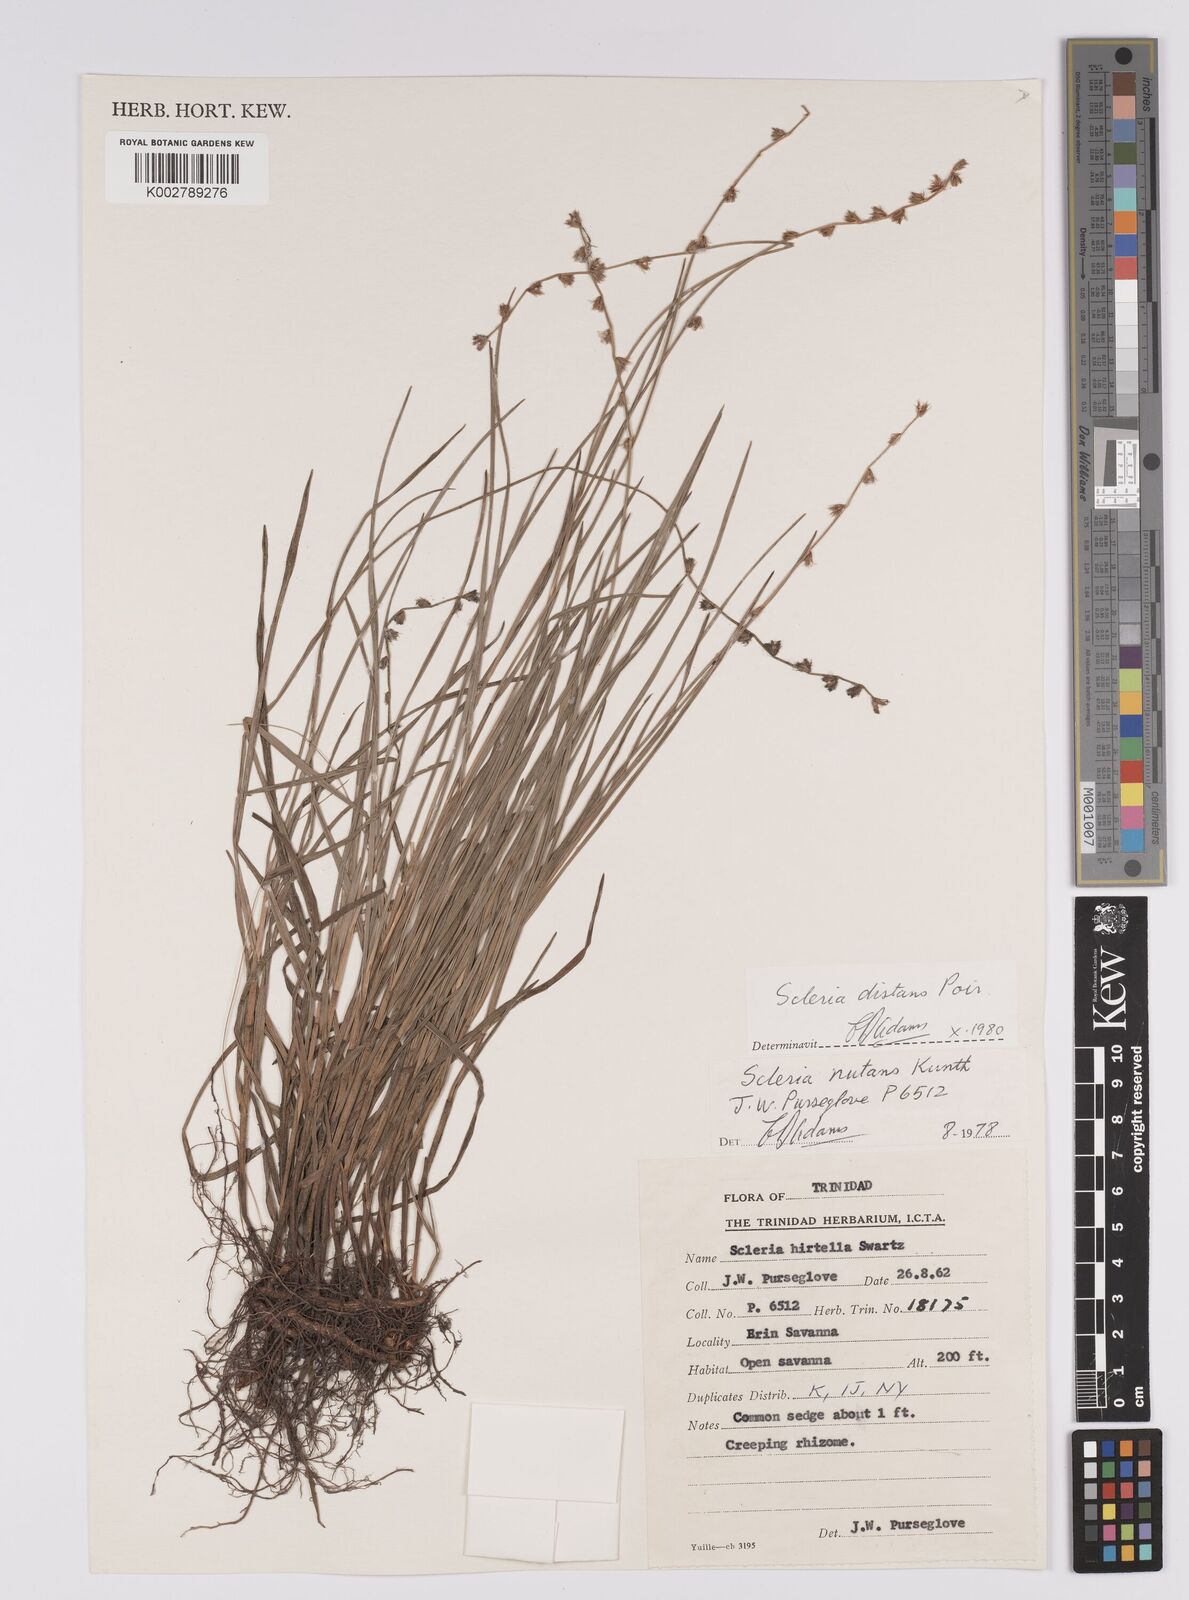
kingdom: Plantae
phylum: Tracheophyta
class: Liliopsida
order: Poales
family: Cyperaceae
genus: Scleria
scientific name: Scleria distans
